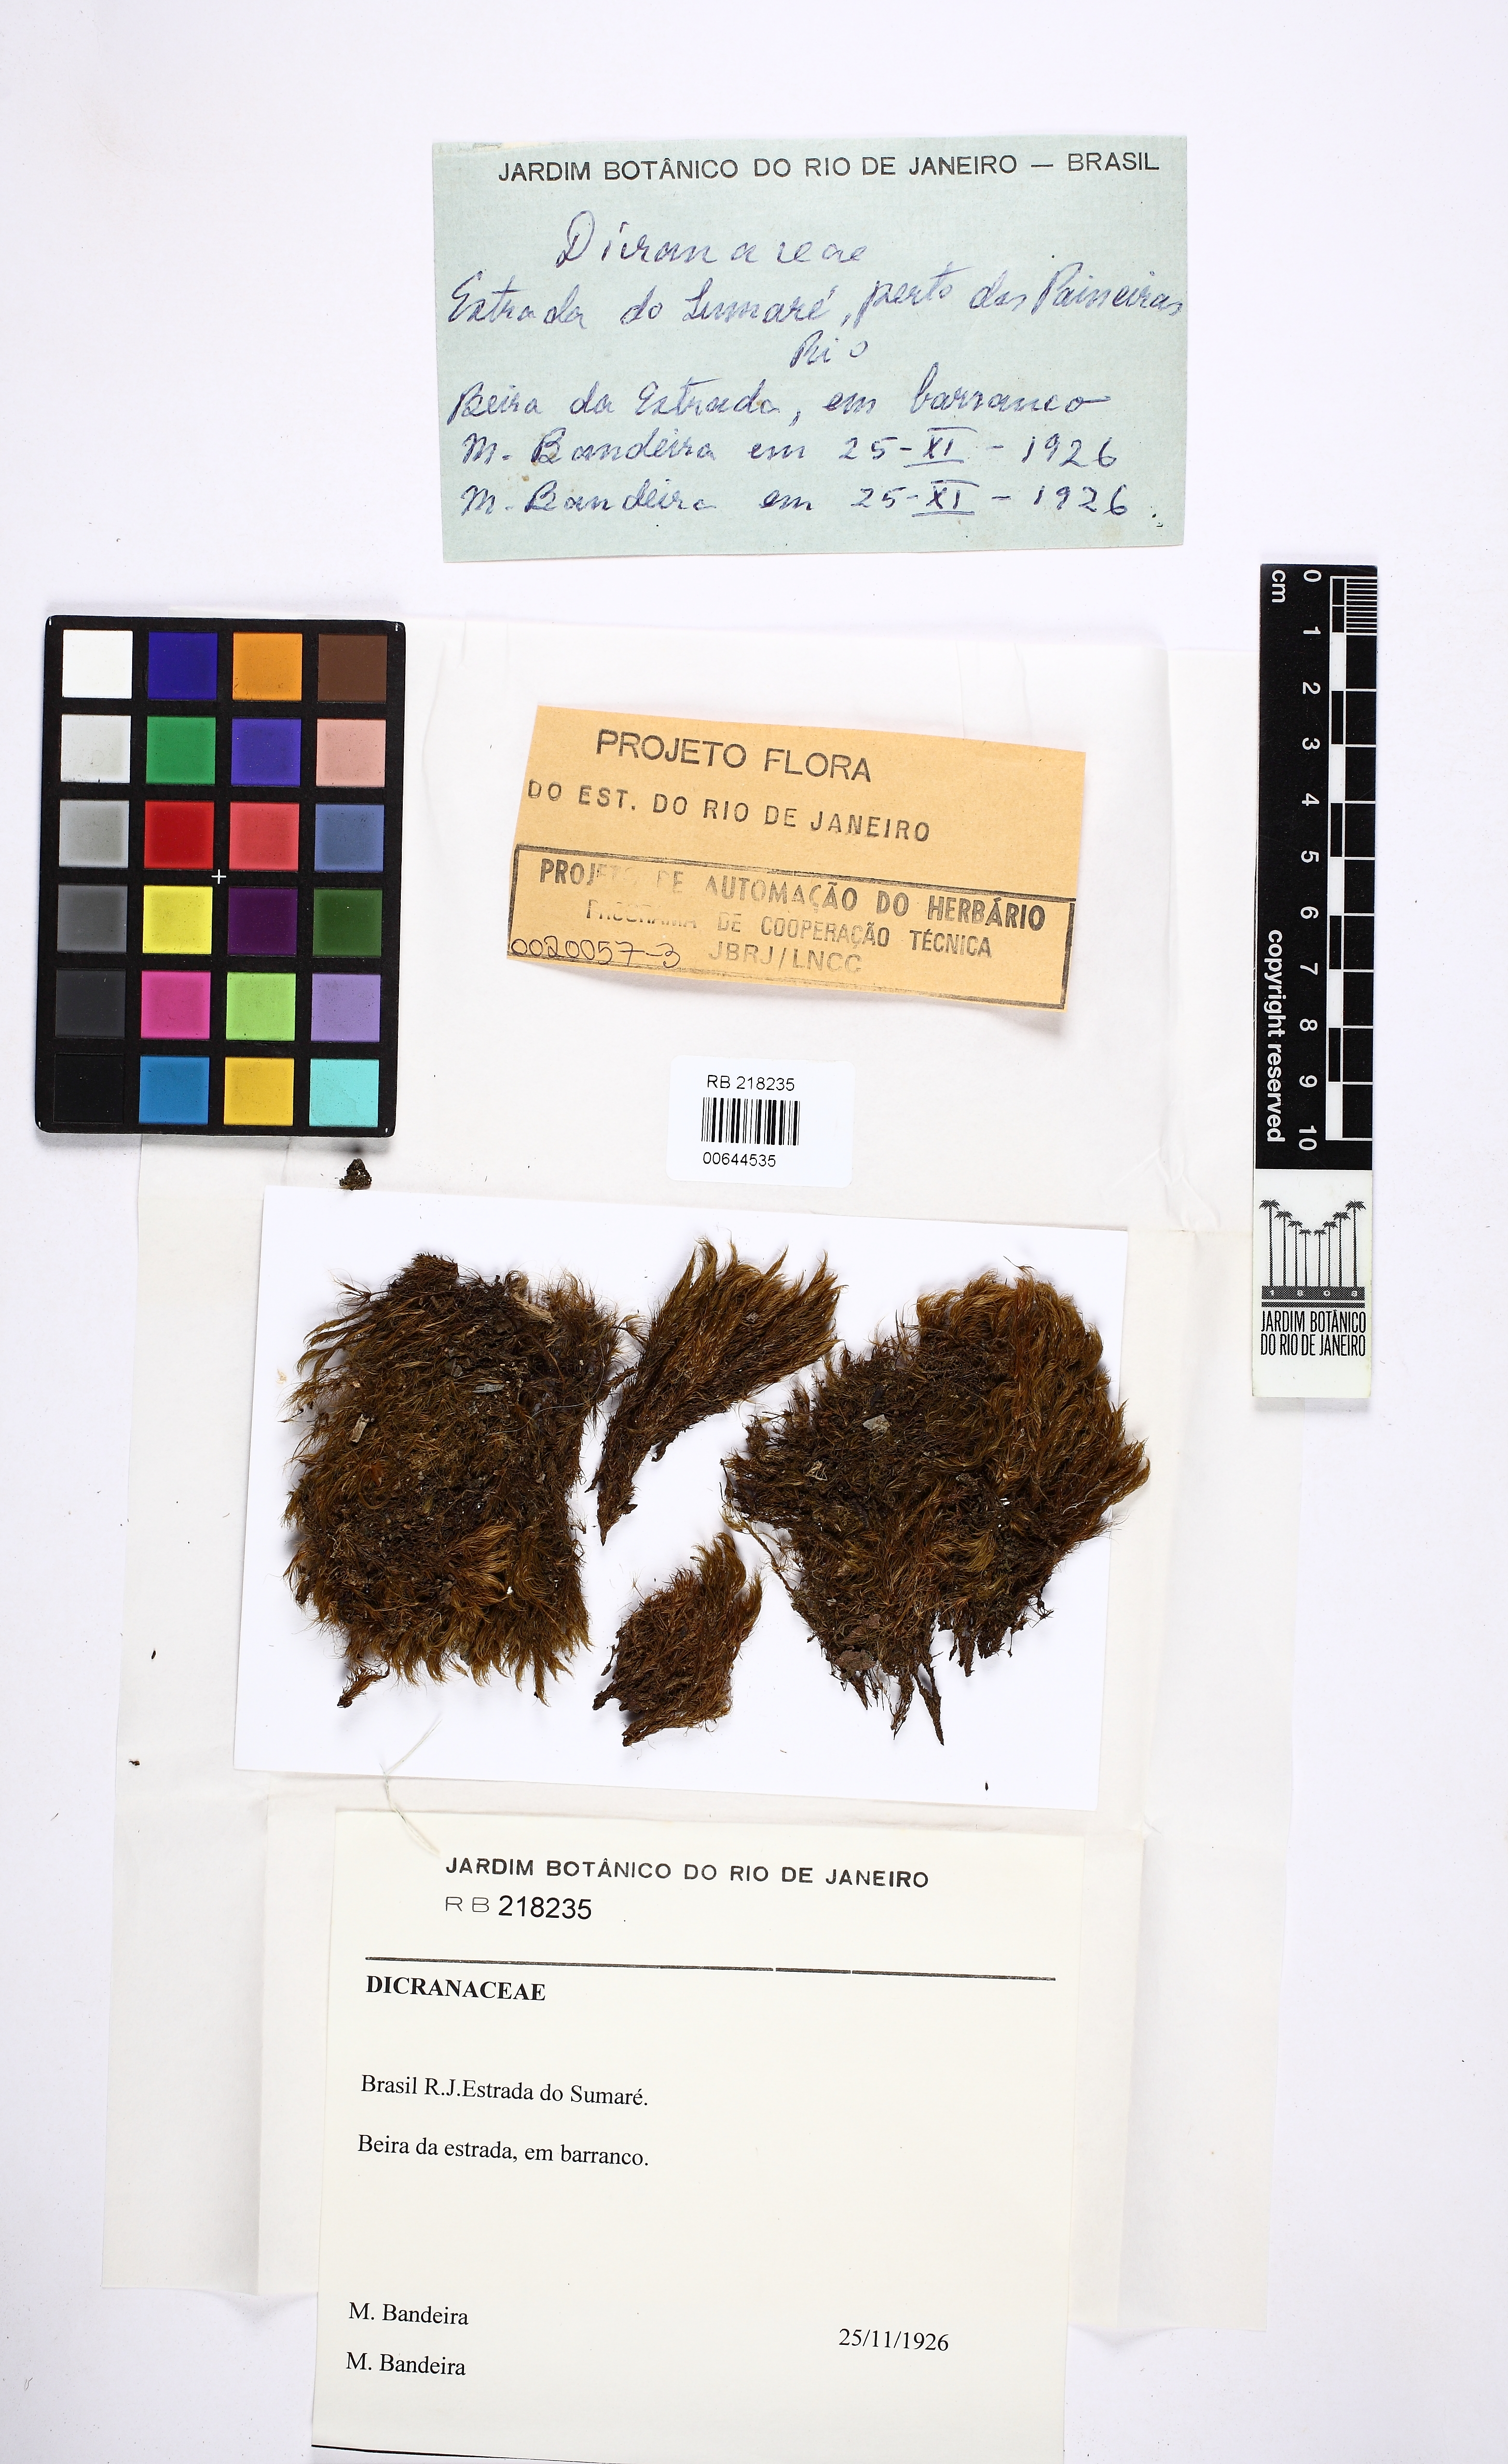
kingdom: Plantae
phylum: Bryophyta
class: Bryopsida
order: Dicranales
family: Dicranaceae
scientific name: Dicranaceae
